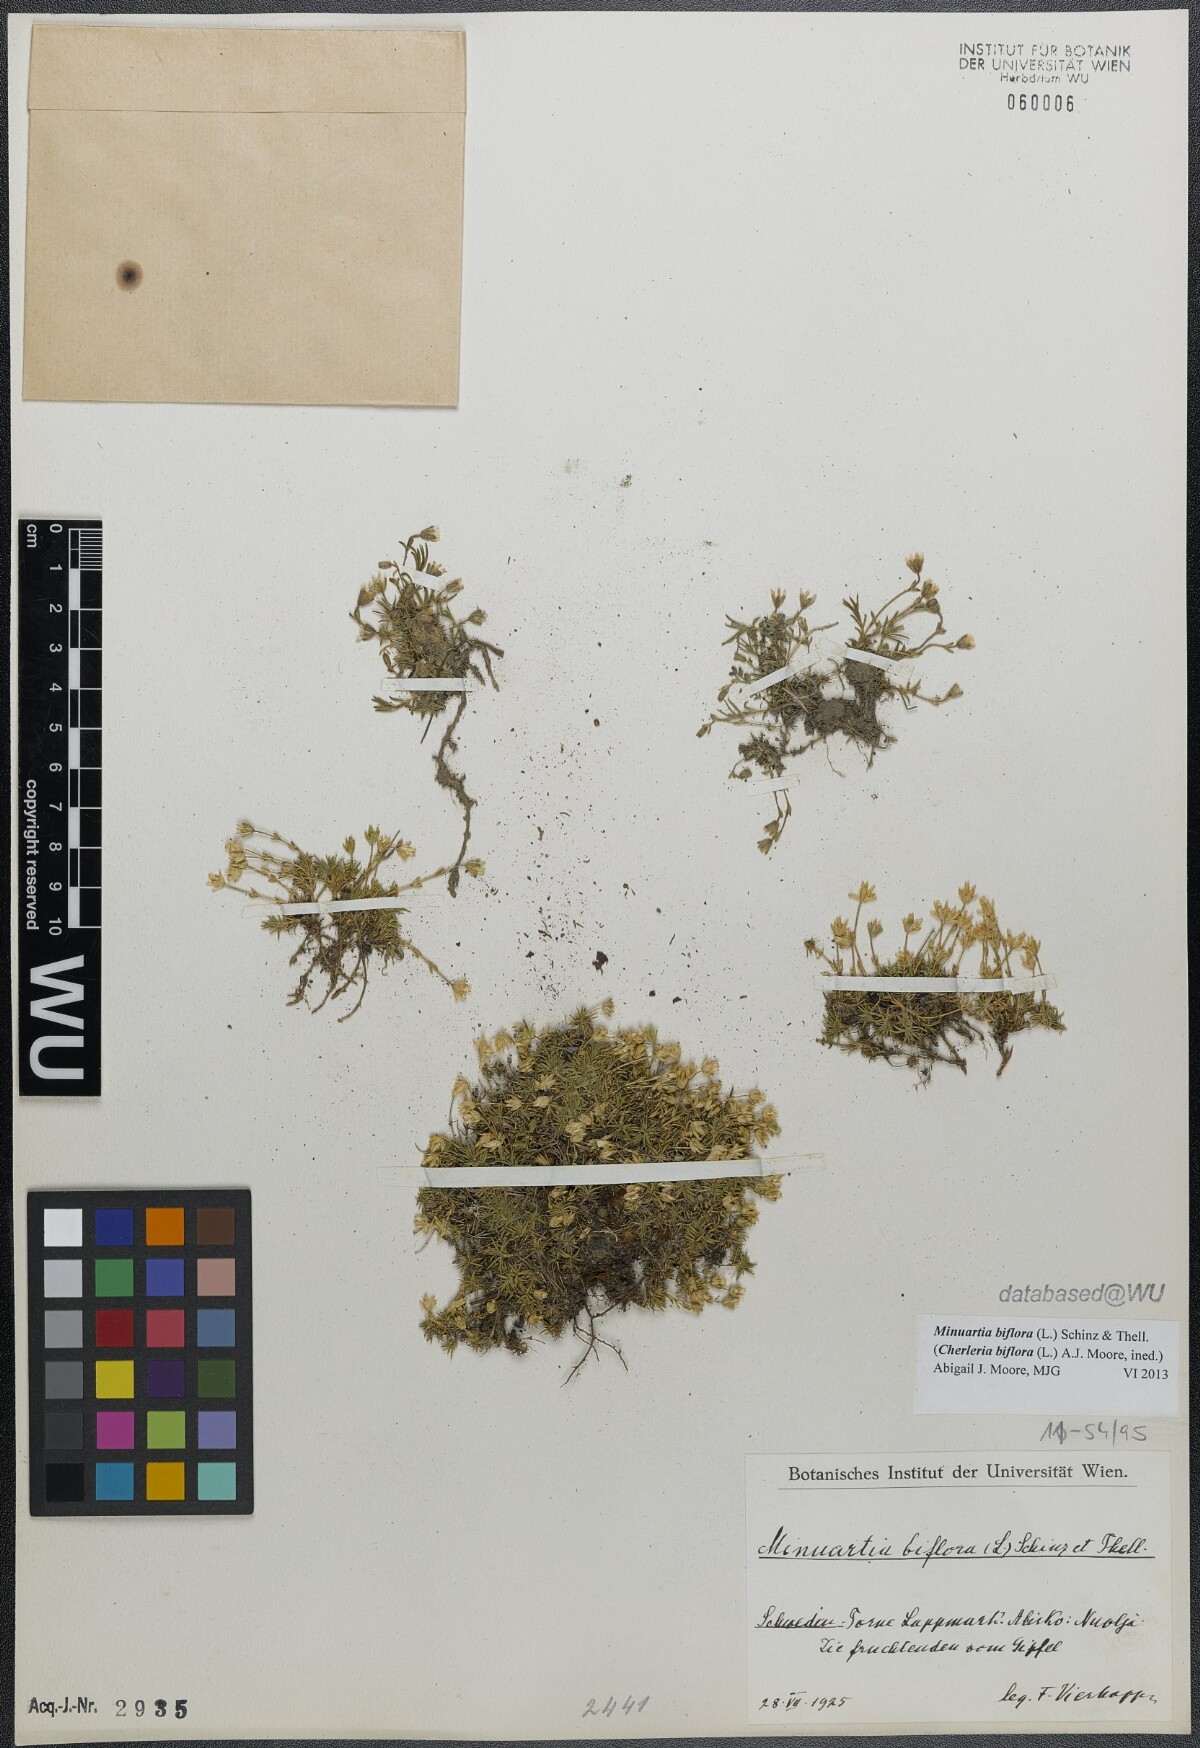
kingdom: Plantae
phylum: Tracheophyta
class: Magnoliopsida
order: Caryophyllales
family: Caryophyllaceae
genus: Cherleria
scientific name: Cherleria biflora
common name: Mountain sandwort
